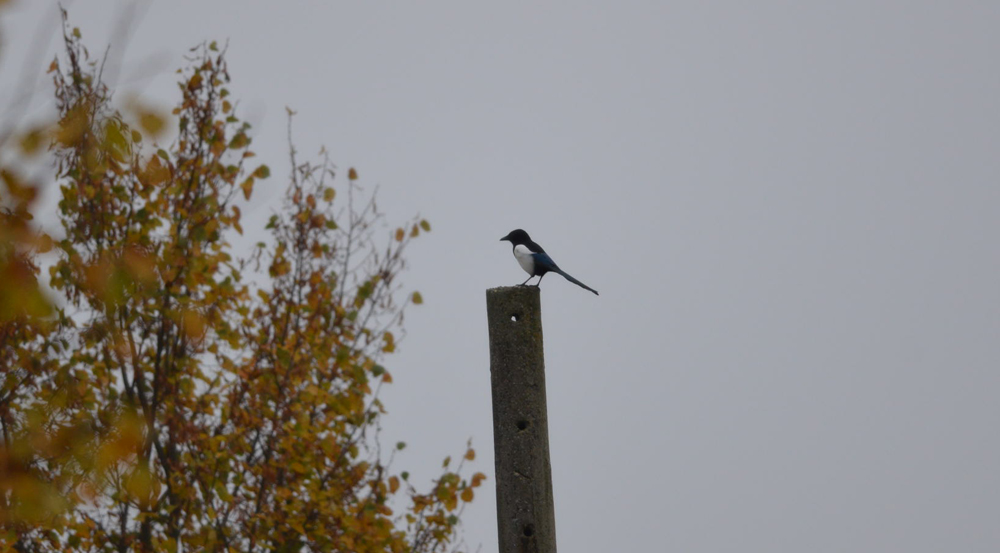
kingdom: Animalia
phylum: Chordata
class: Aves
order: Passeriformes
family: Corvidae
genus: Pica
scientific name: Pica pica
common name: Eurasian magpie
